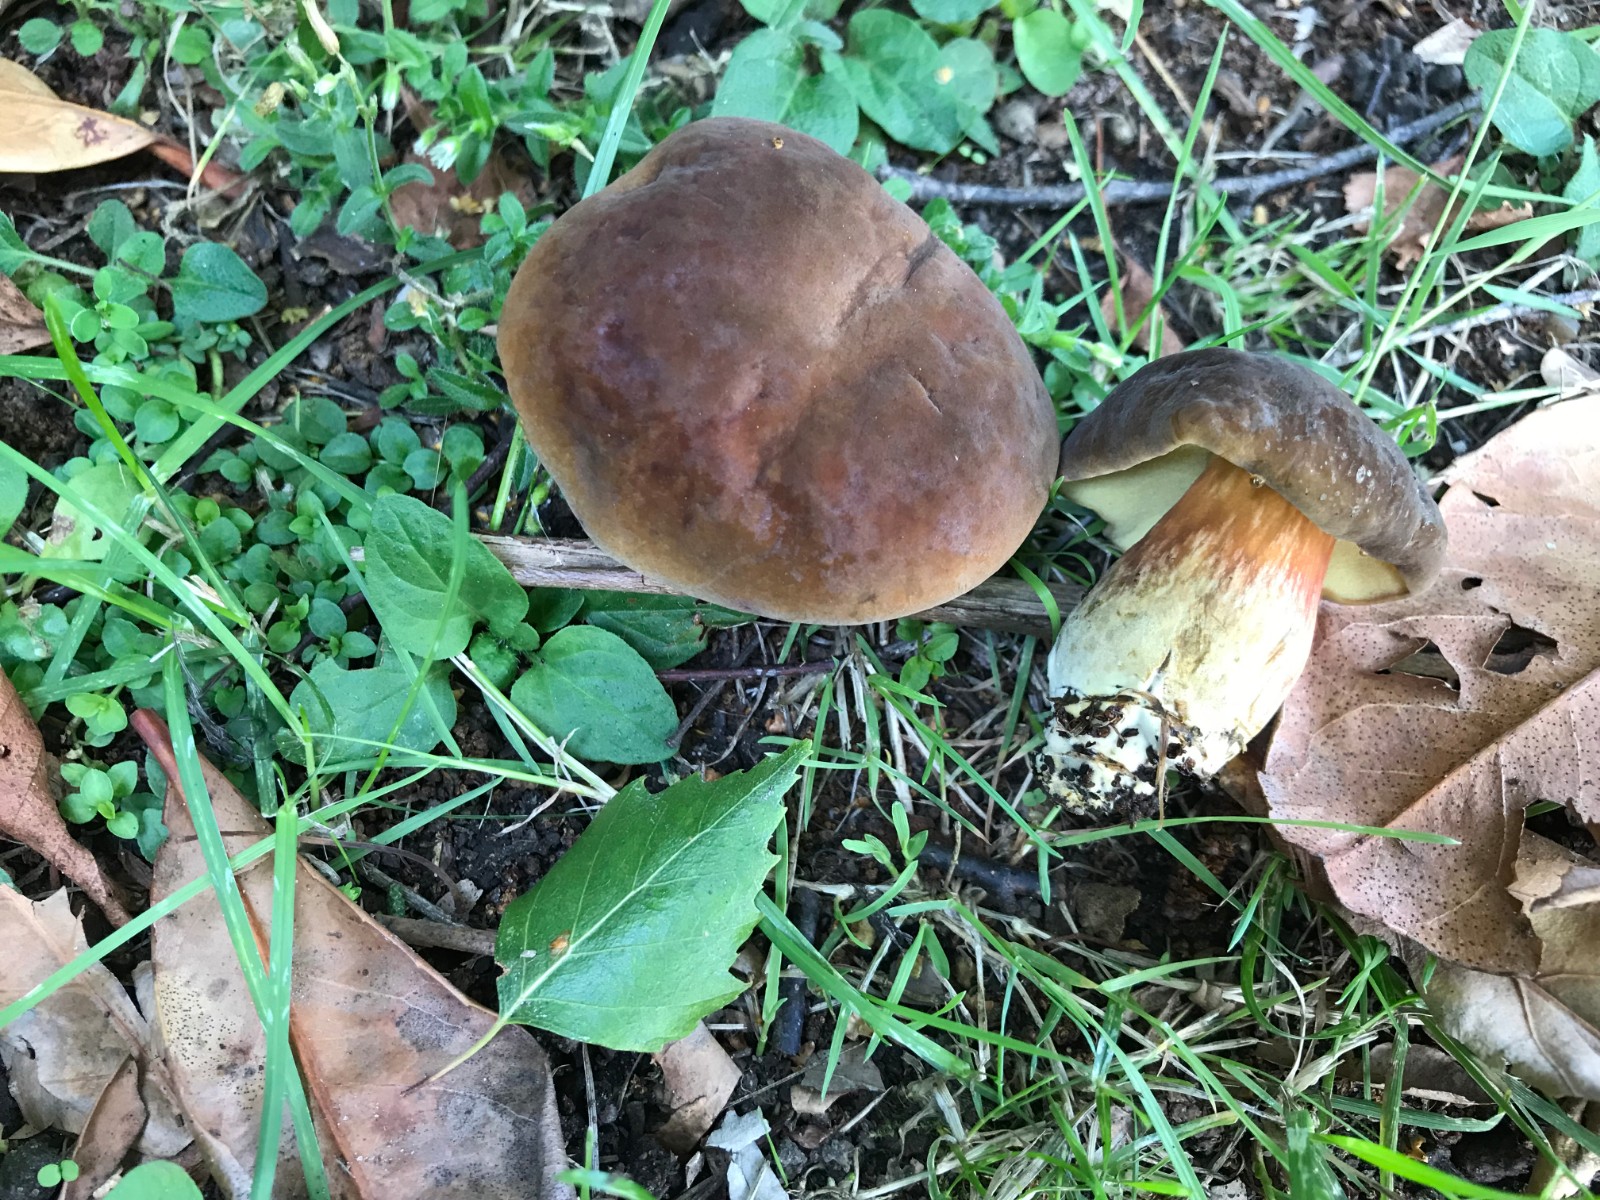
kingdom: Fungi
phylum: Basidiomycota
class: Agaricomycetes
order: Boletales
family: Boletaceae
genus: Hortiboletus
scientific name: Hortiboletus bubalinus
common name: aurora-rørhat
